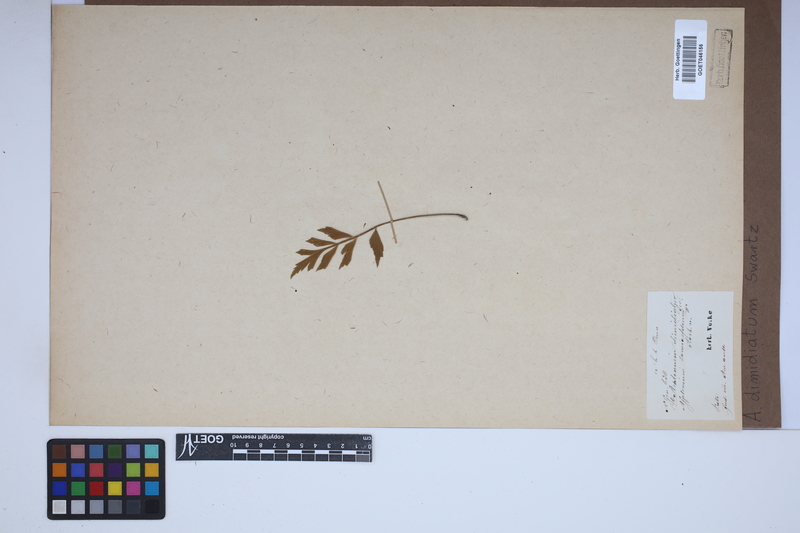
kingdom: Plantae
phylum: Tracheophyta
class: Polypodiopsida
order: Polypodiales
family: Aspleniaceae
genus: Asplenium
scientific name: Asplenium dimidiatum
